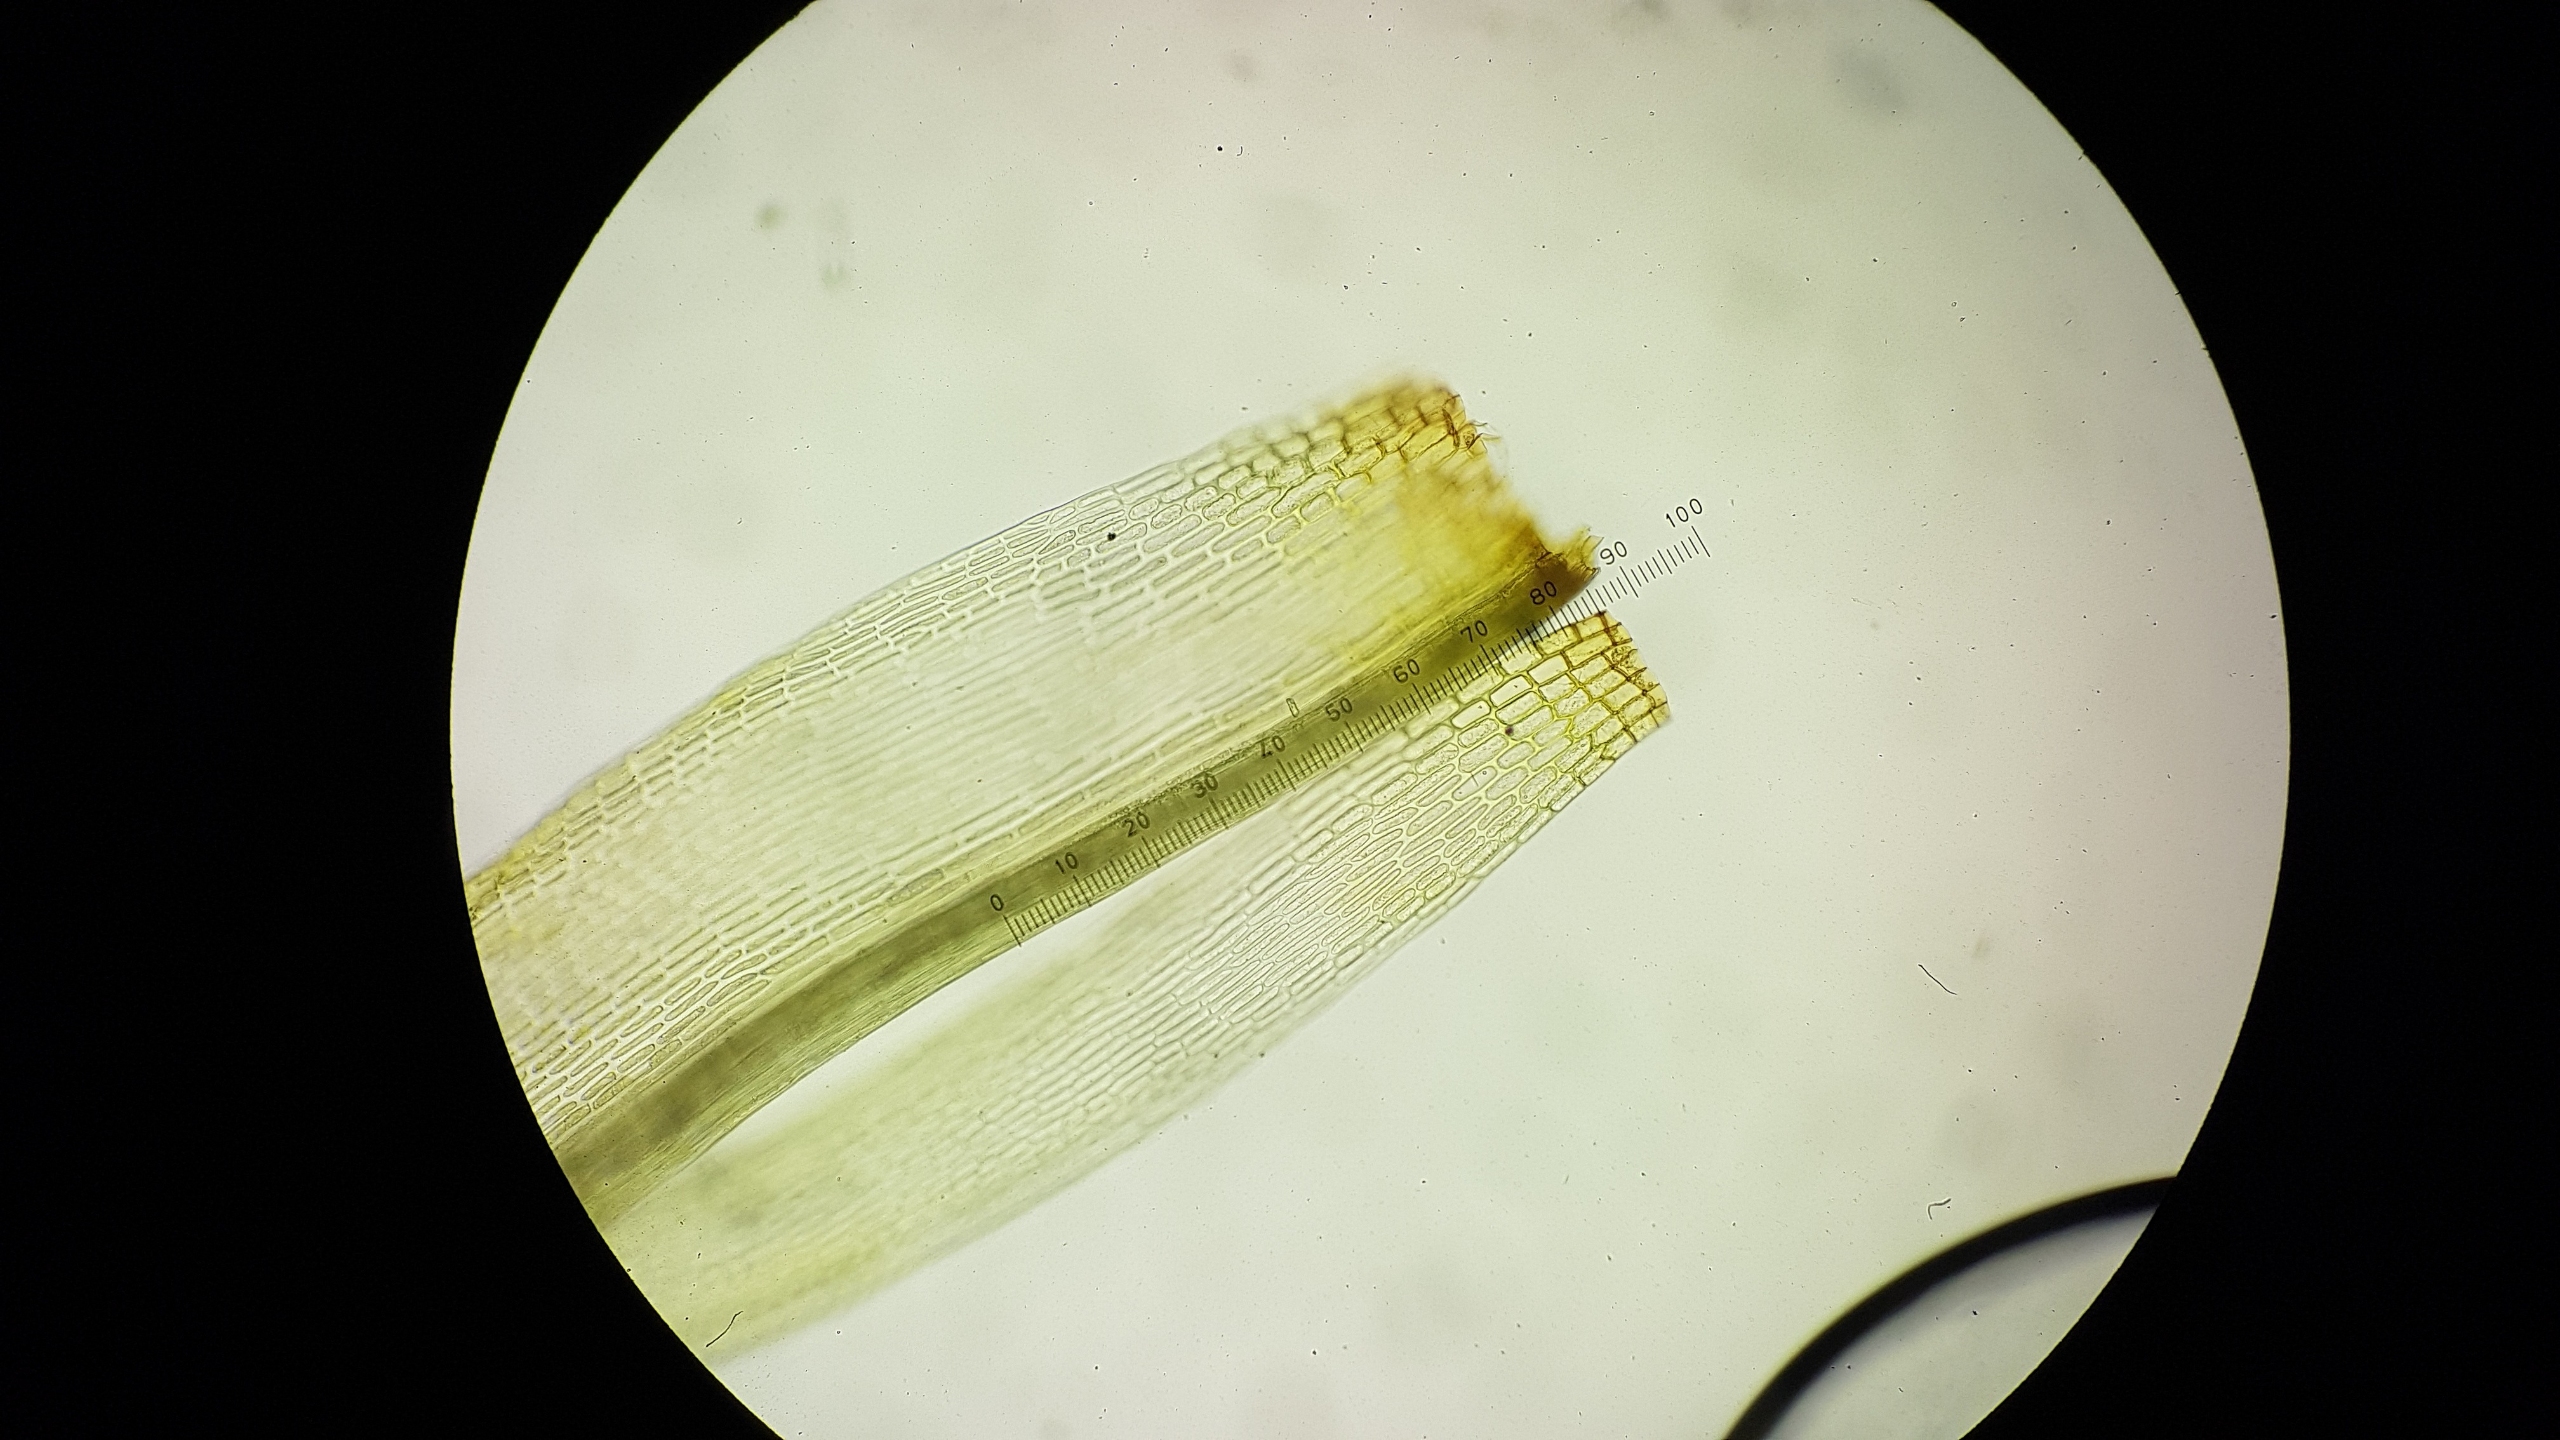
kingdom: Plantae
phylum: Bryophyta
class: Bryopsida
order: Dicranales
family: Rhabdoweisiaceae
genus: Cynodontium
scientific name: Cynodontium tenellum
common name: Liden hundetandsmos
